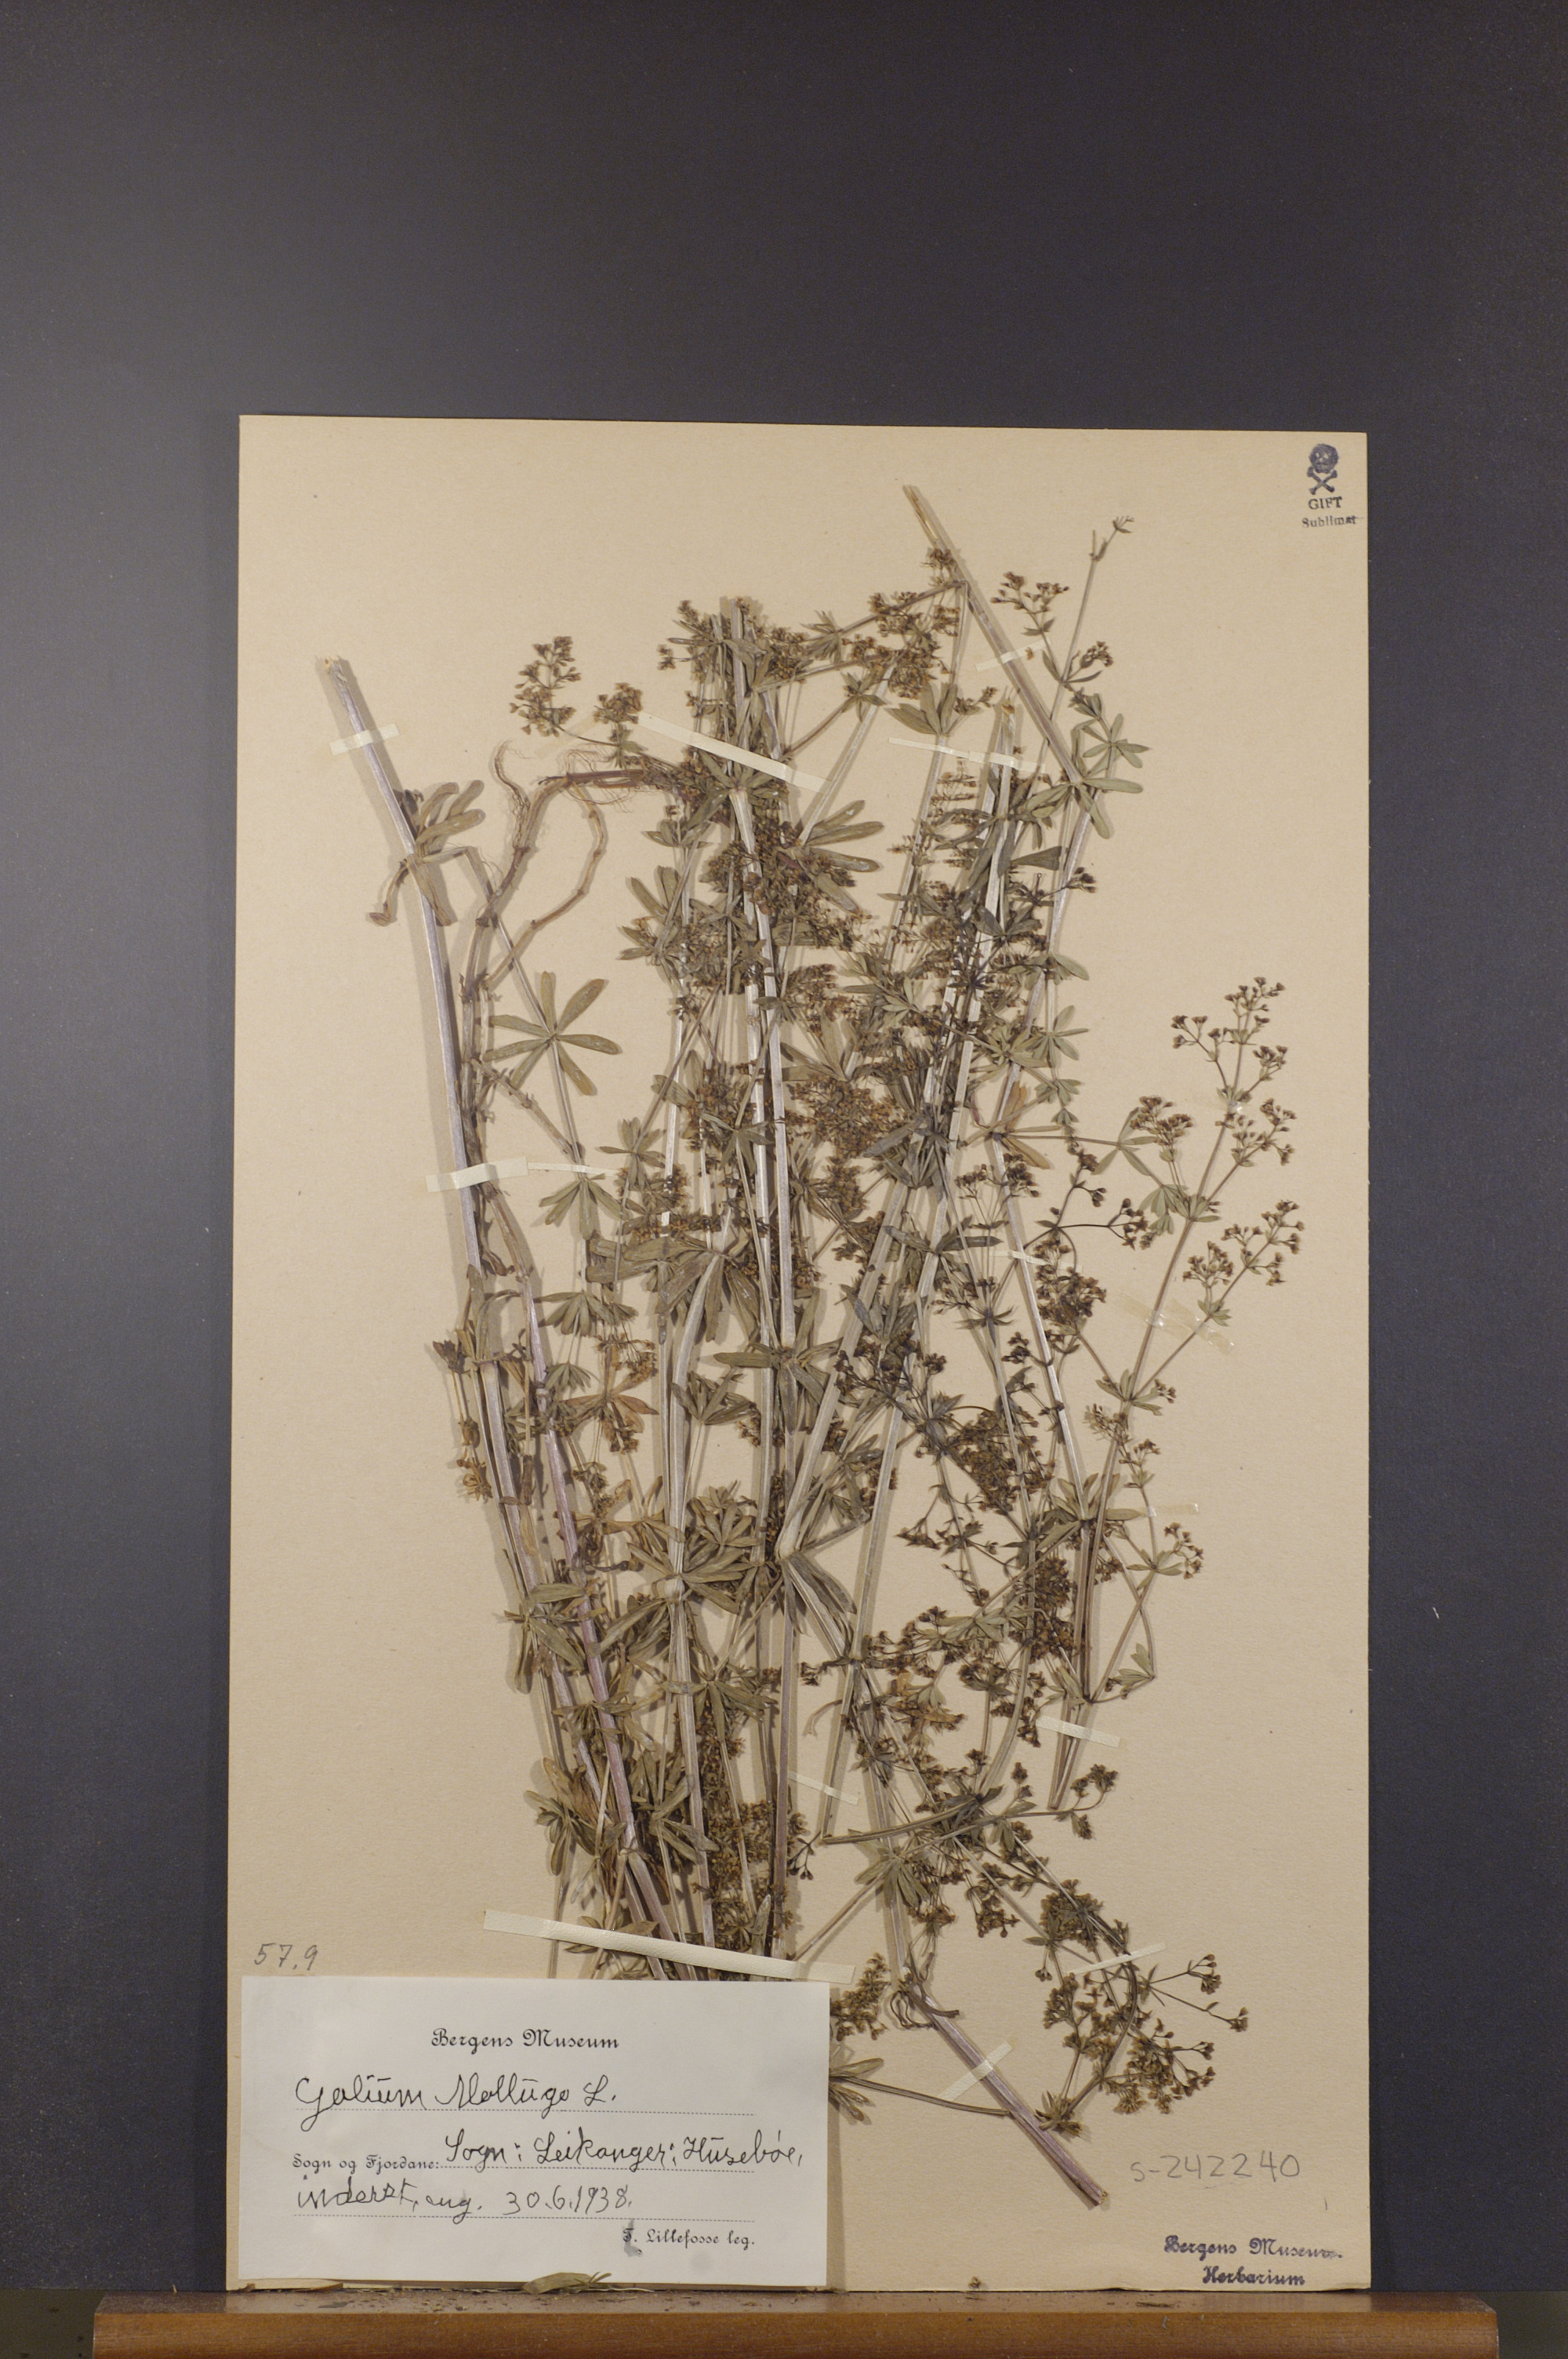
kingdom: Plantae
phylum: Tracheophyta
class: Magnoliopsida
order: Gentianales
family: Rubiaceae
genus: Galium
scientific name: Galium mollugo
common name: Hedge bedstraw
